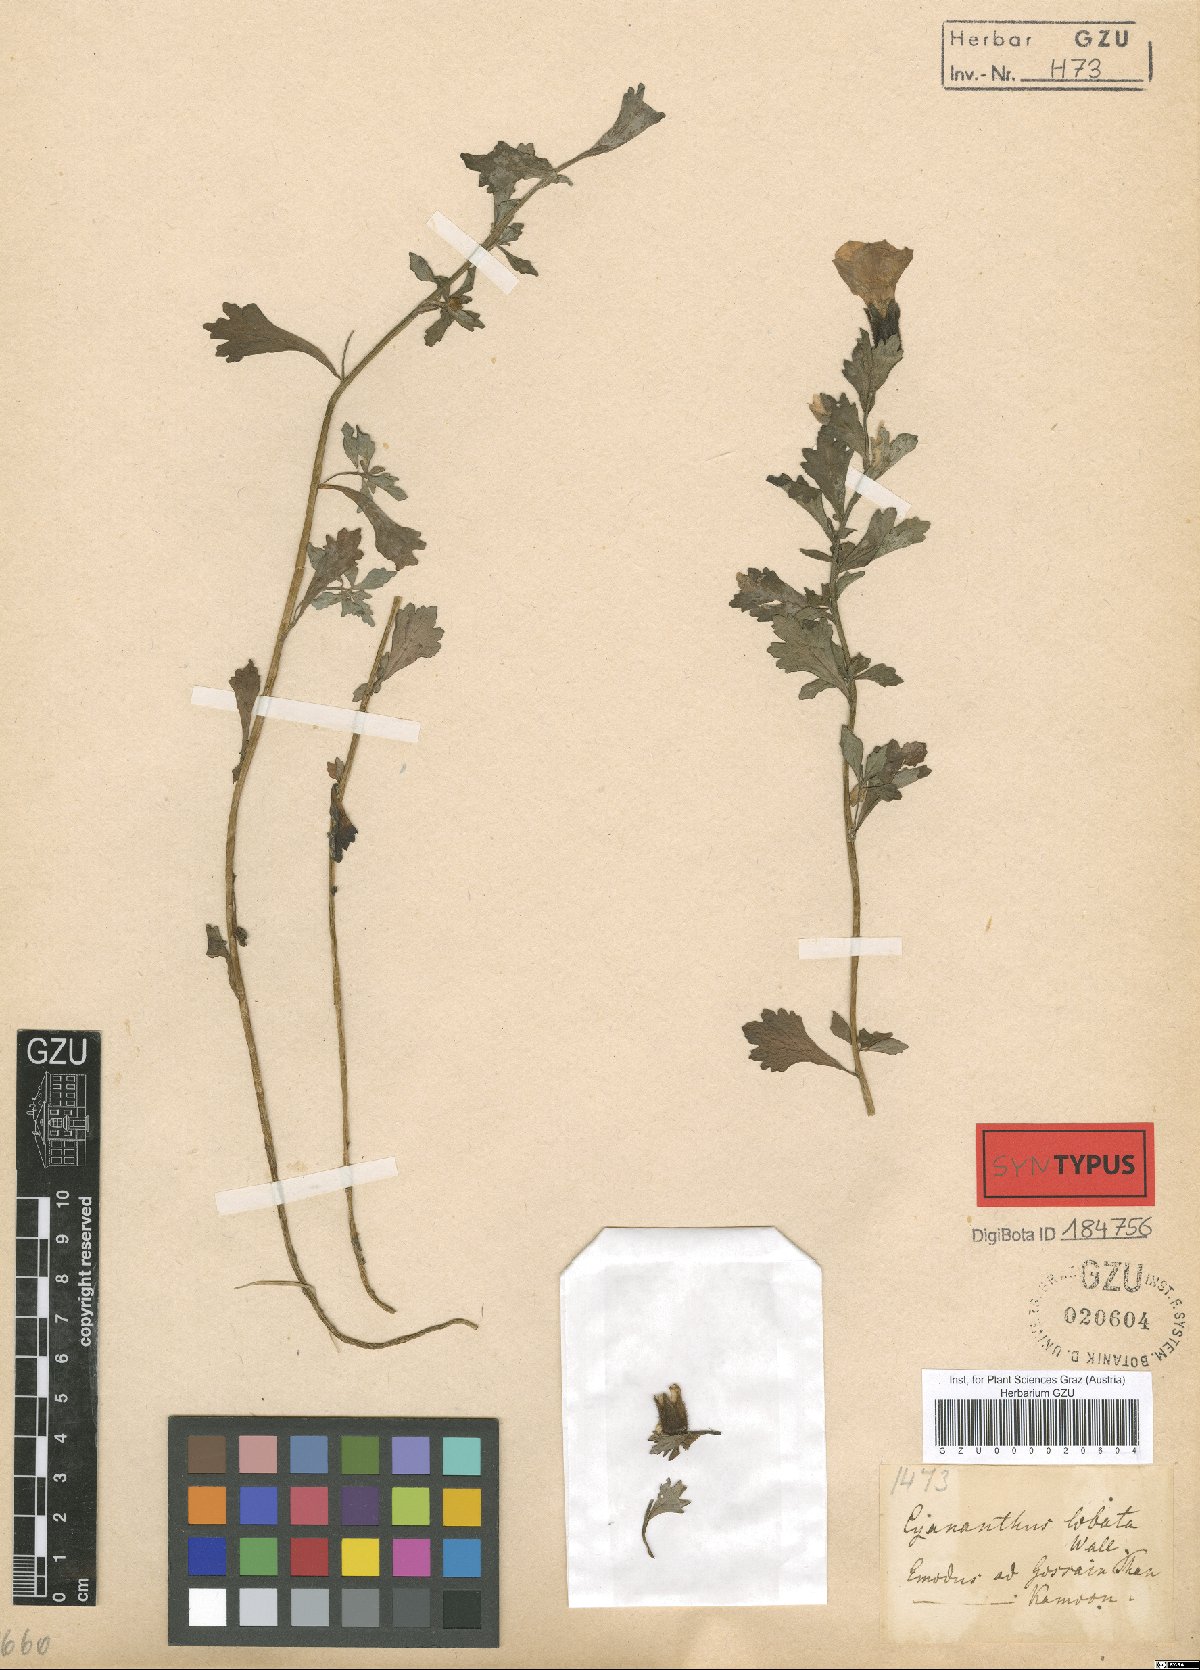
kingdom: Plantae
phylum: Tracheophyta
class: Magnoliopsida
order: Asterales
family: Campanulaceae
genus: Cyananthus
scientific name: Cyananthus lobatus
